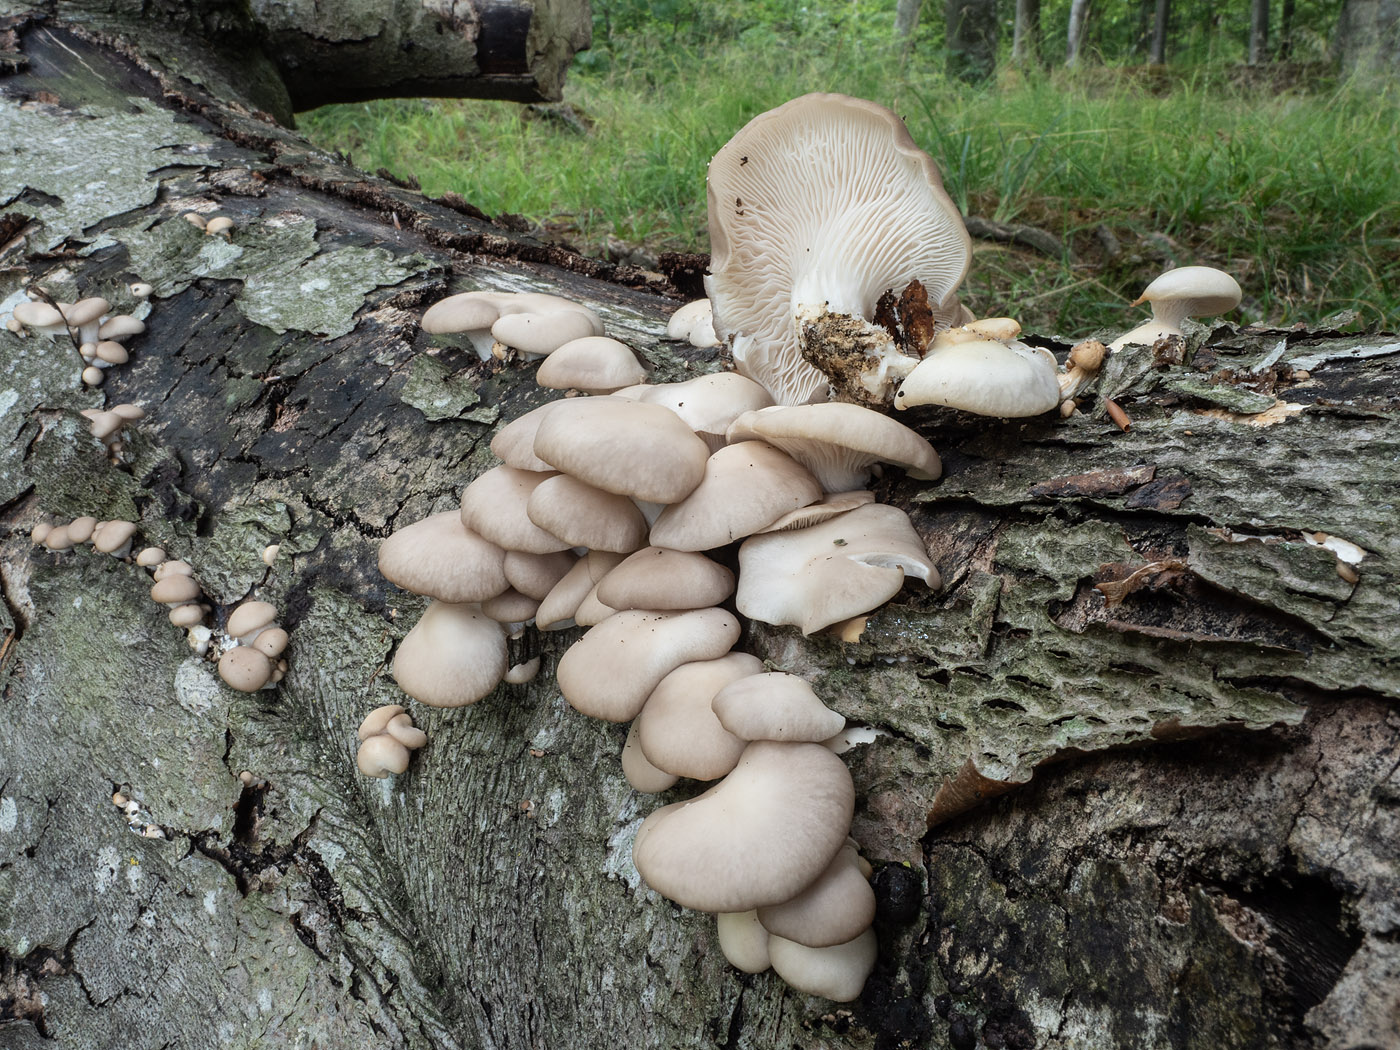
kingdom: Fungi
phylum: Basidiomycota
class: Agaricomycetes
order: Agaricales
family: Pleurotaceae
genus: Pleurotus
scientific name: Pleurotus pulmonarius
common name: sommer-østershat
